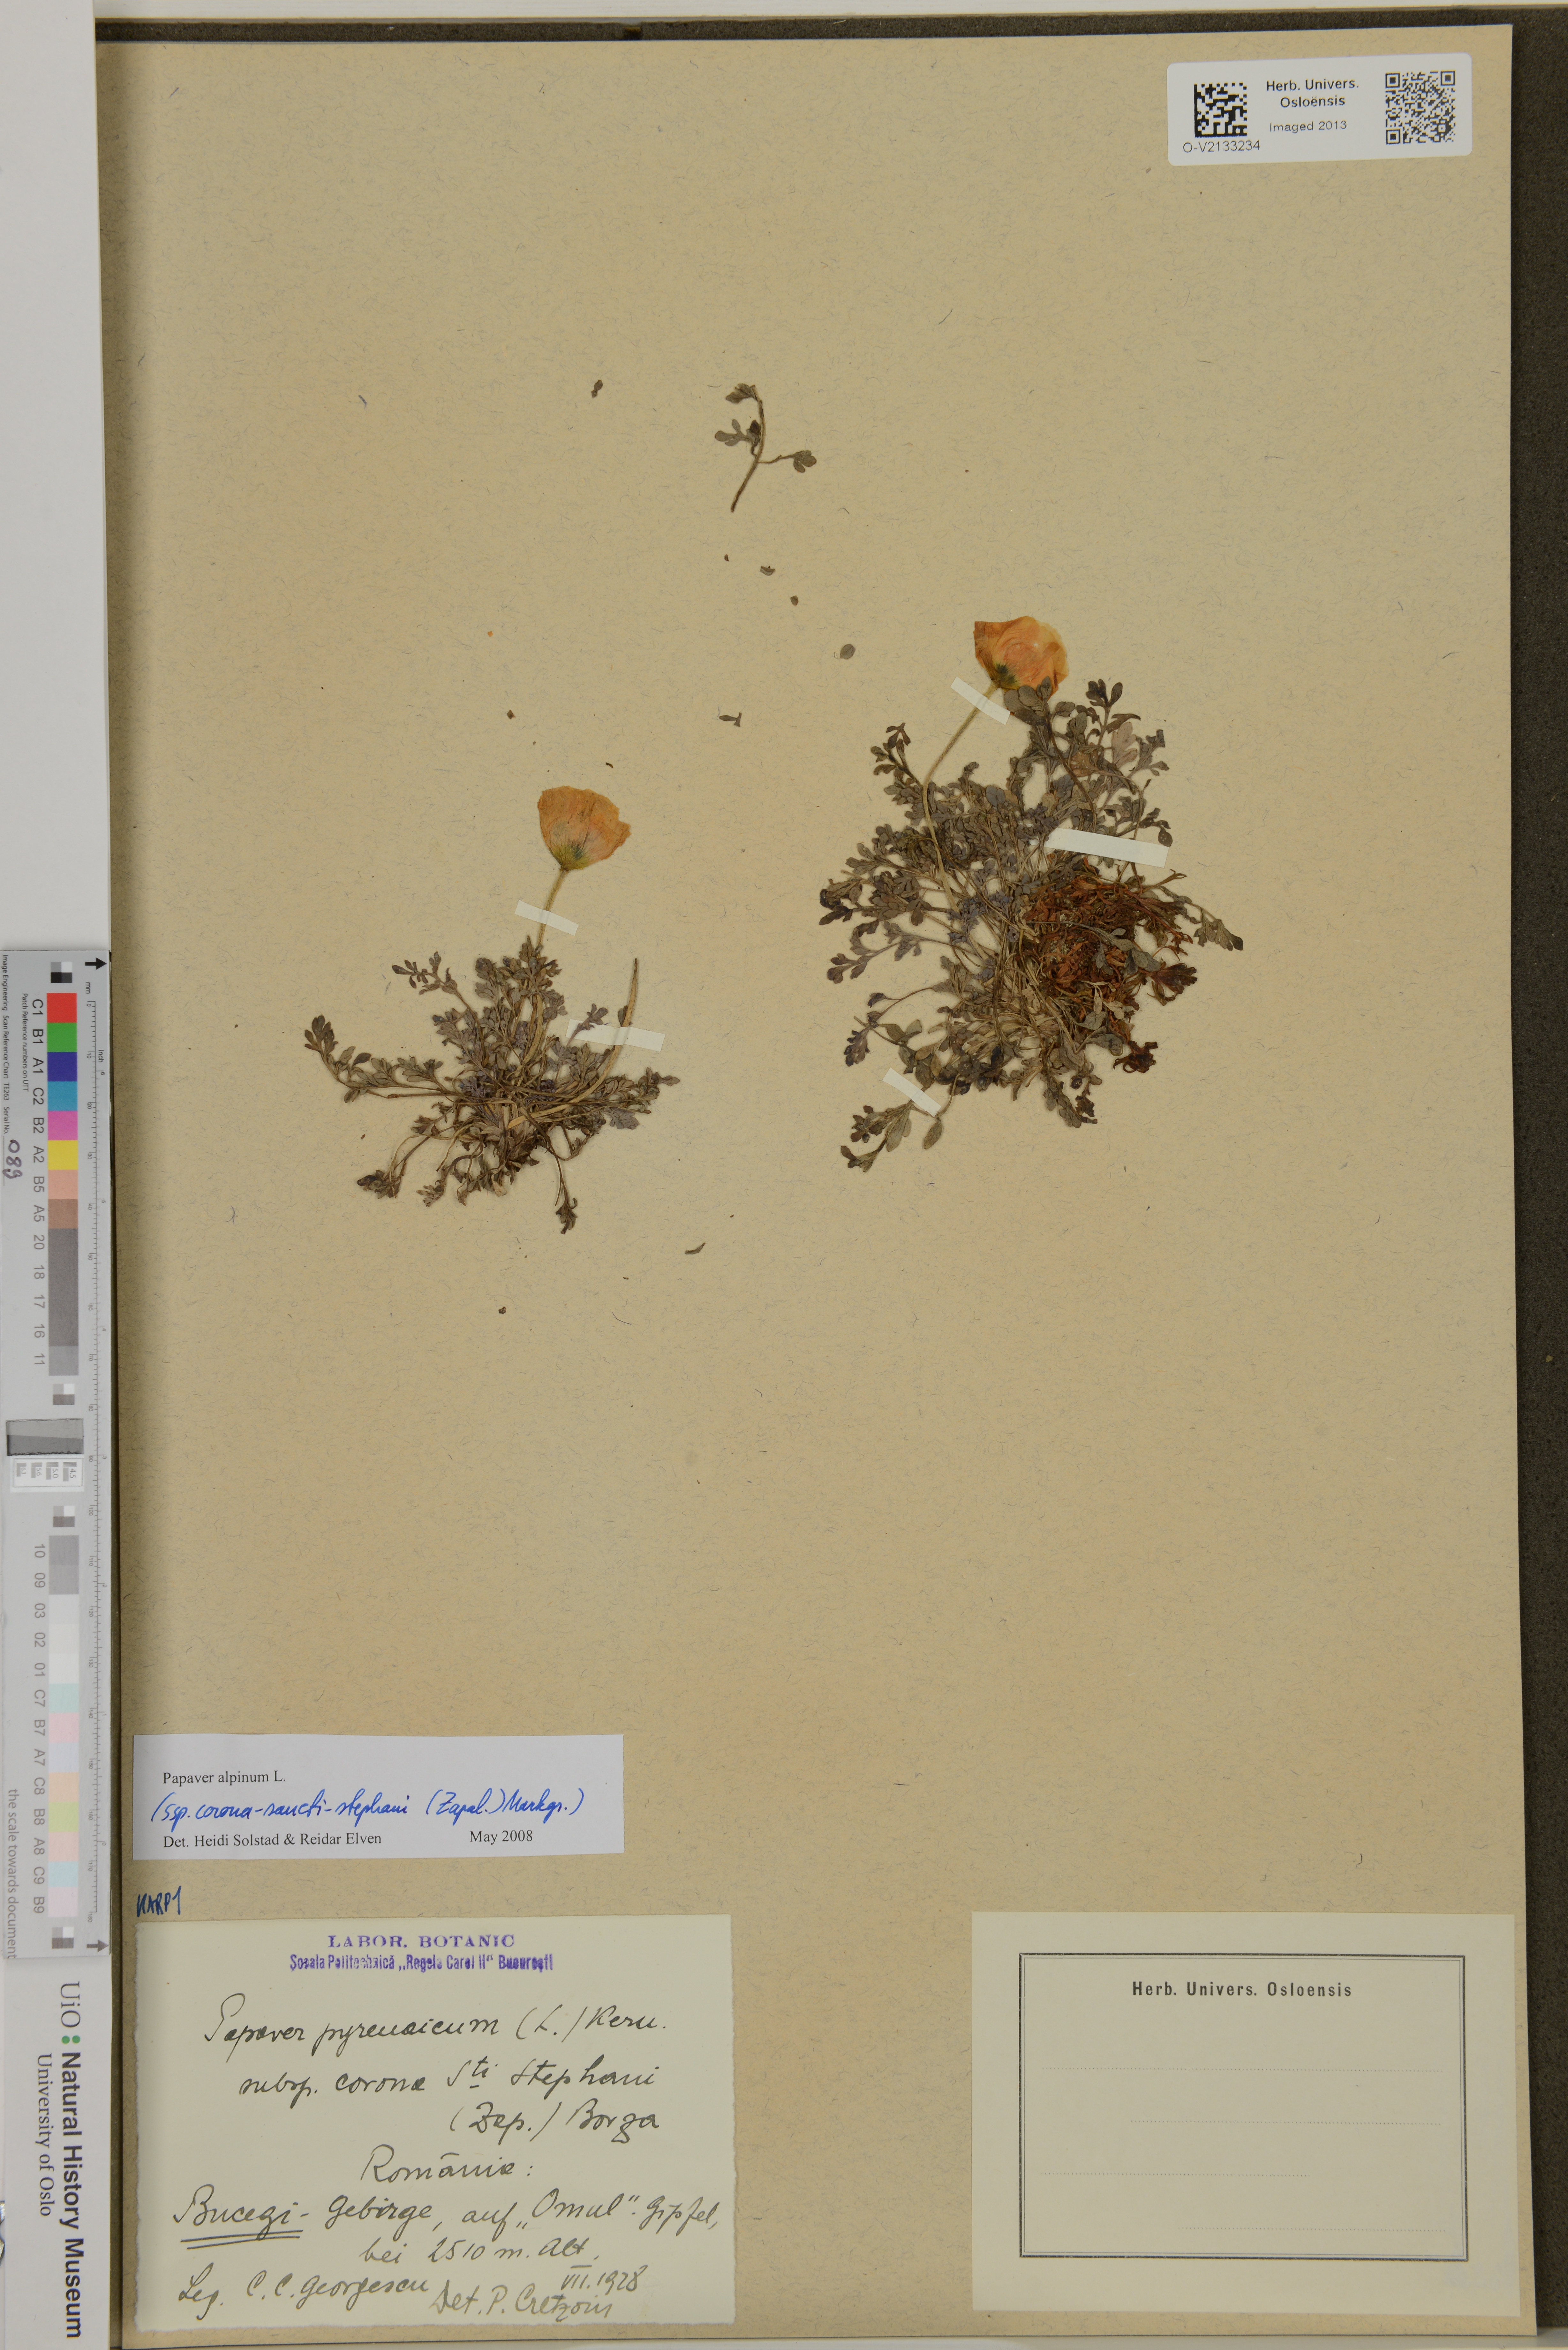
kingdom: Plantae
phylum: Tracheophyta
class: Magnoliopsida
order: Ranunculales
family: Papaveraceae
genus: Papaver
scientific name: Papaver alpinum
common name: Austrian poppy
